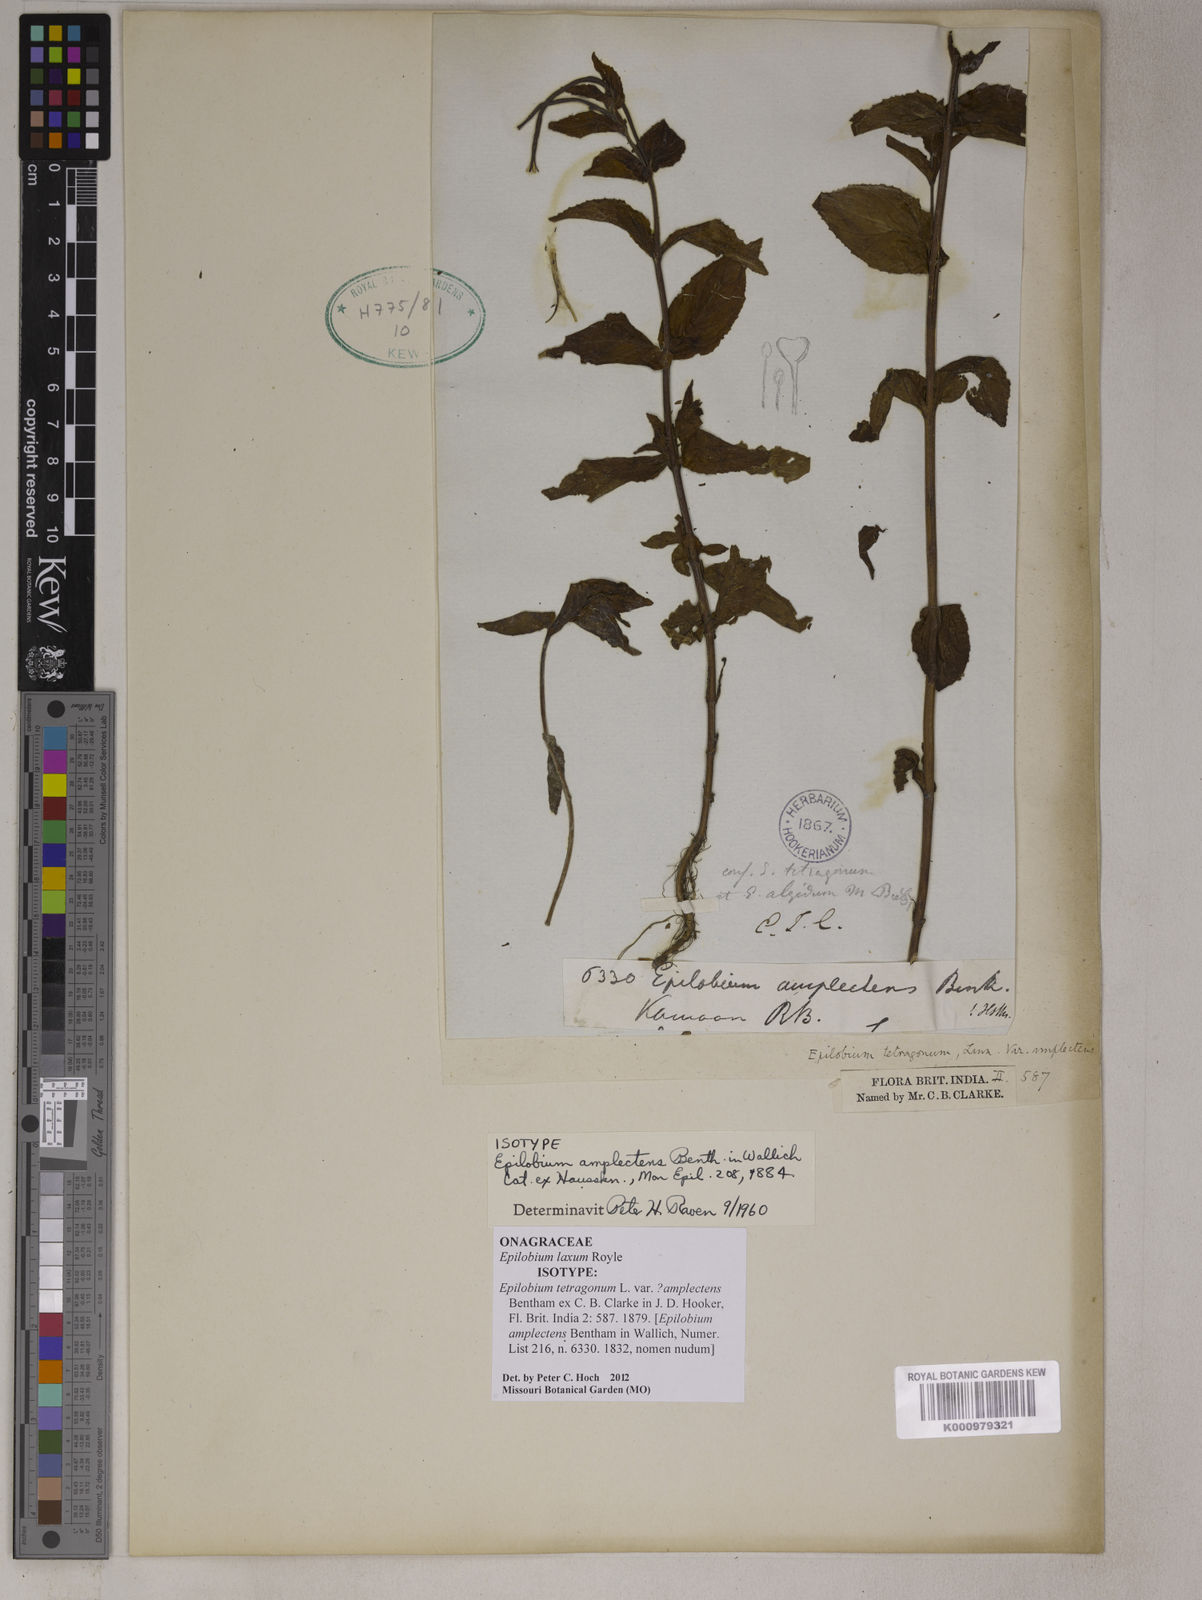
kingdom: Plantae
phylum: Tracheophyta
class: Magnoliopsida
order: Myrtales
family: Onagraceae
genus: Epilobium
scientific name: Epilobium laxum
